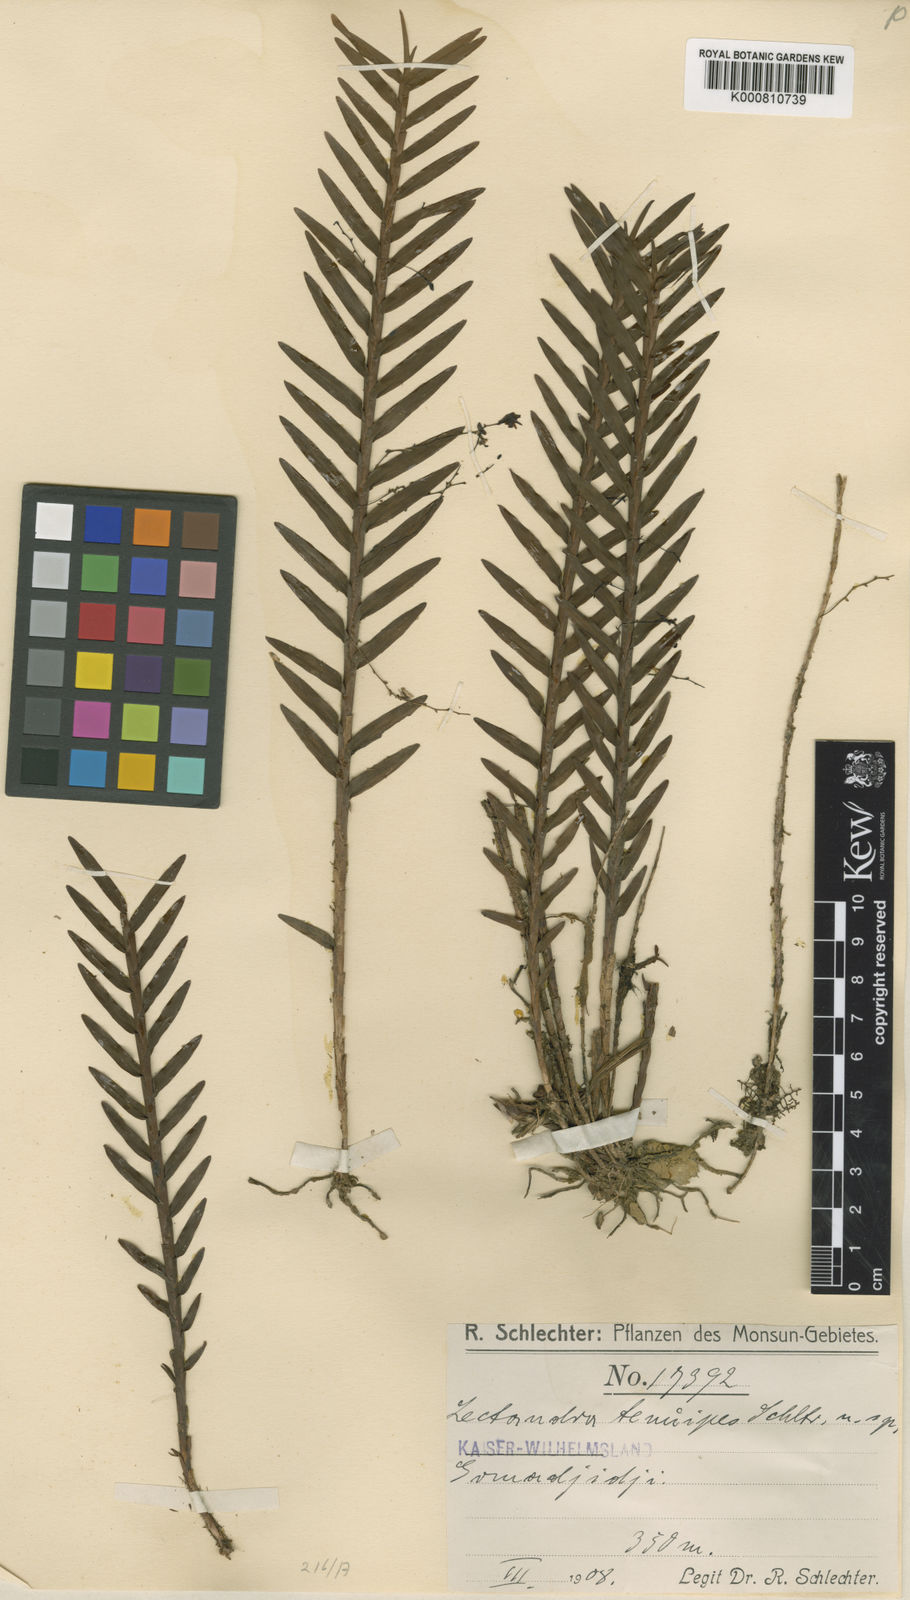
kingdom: Plantae
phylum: Tracheophyta
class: Liliopsida
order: Asparagales
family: Orchidaceae
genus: Poaephyllum
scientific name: Poaephyllum tenuipes
